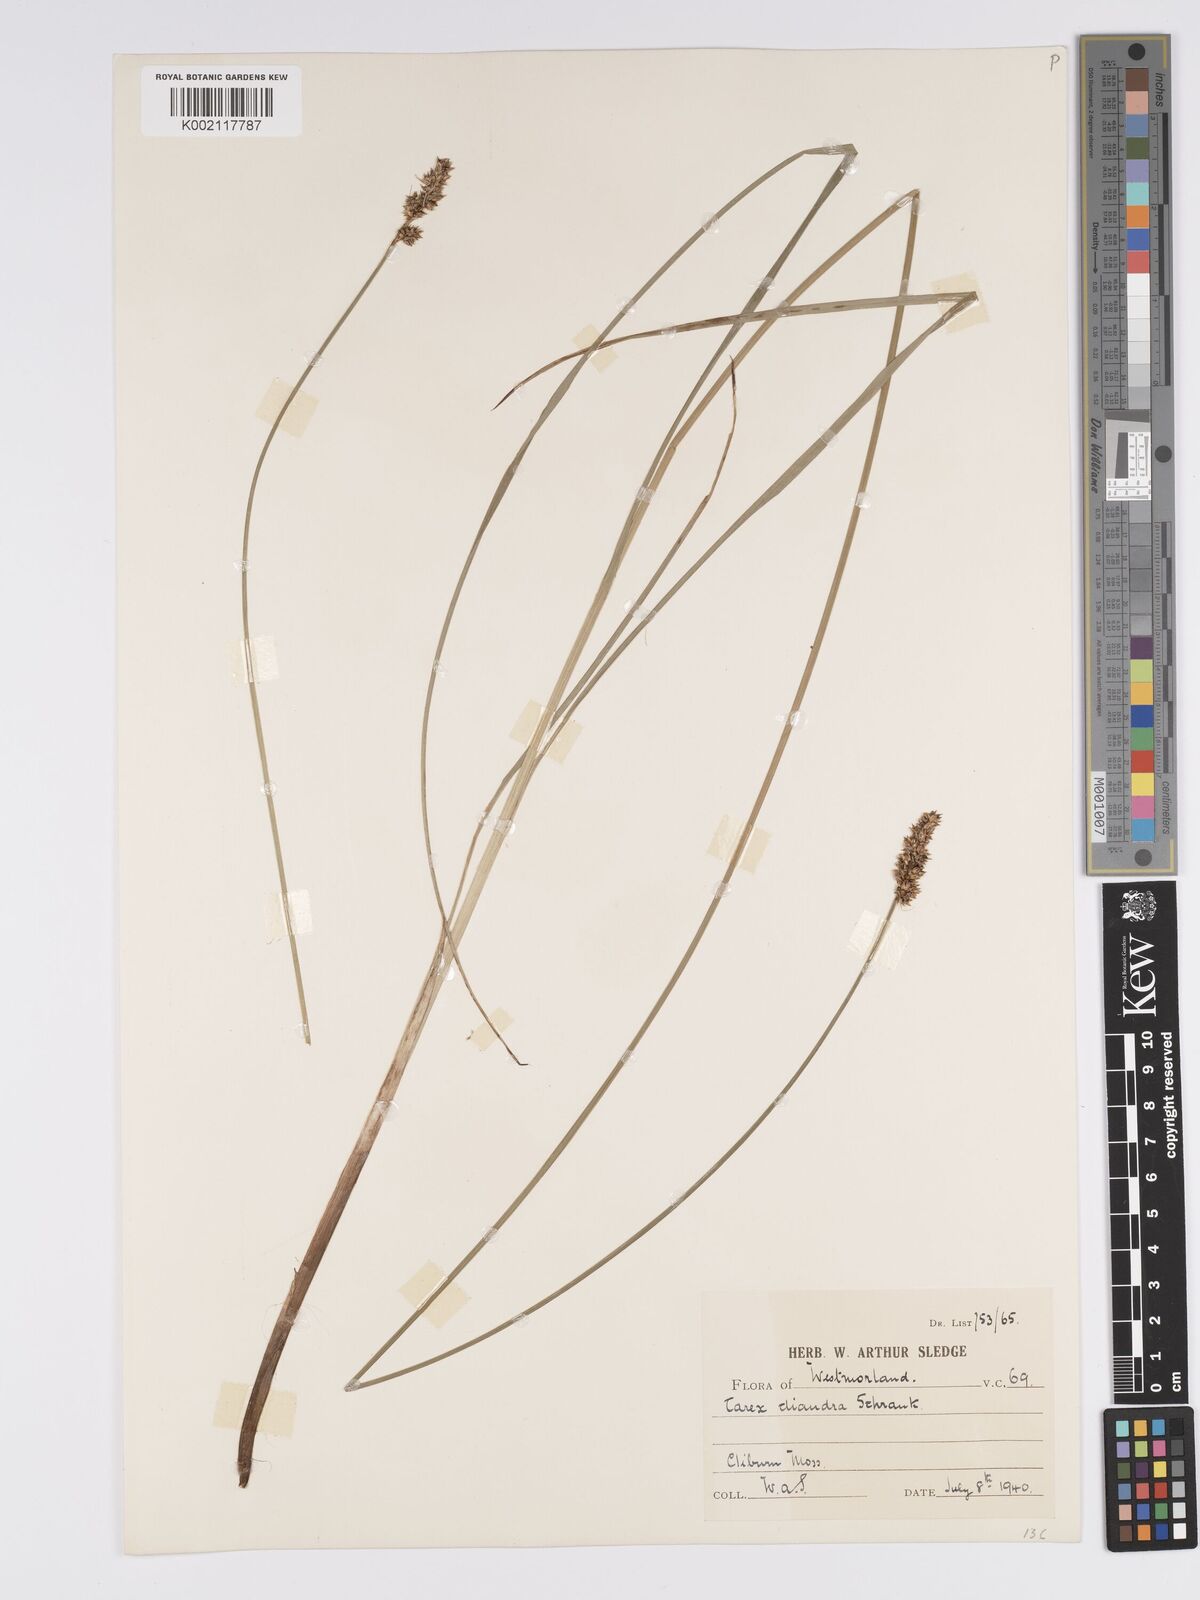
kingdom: Plantae
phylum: Tracheophyta
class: Liliopsida
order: Poales
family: Cyperaceae
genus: Carex
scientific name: Carex diandra
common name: Lesser tussock-sedge
